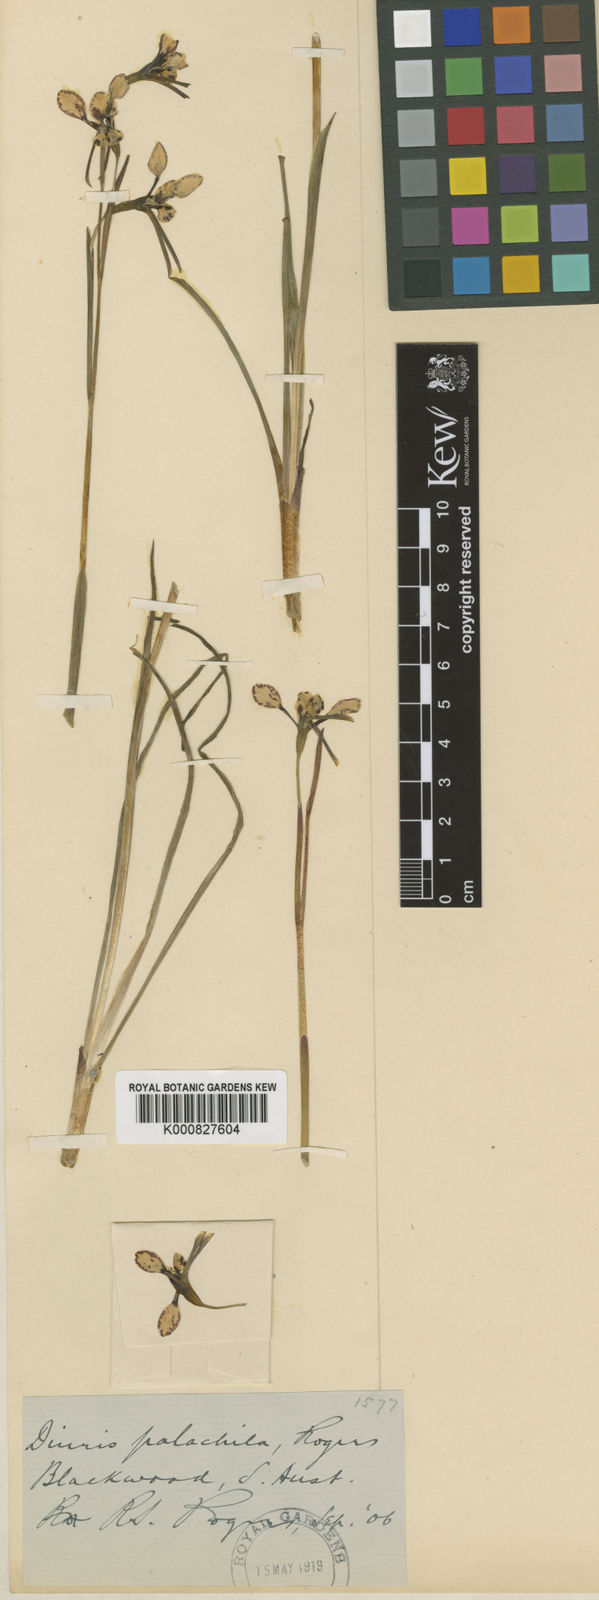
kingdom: Plantae
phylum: Tracheophyta
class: Liliopsida
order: Asparagales
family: Orchidaceae
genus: Diuris
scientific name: Diuris palachila
